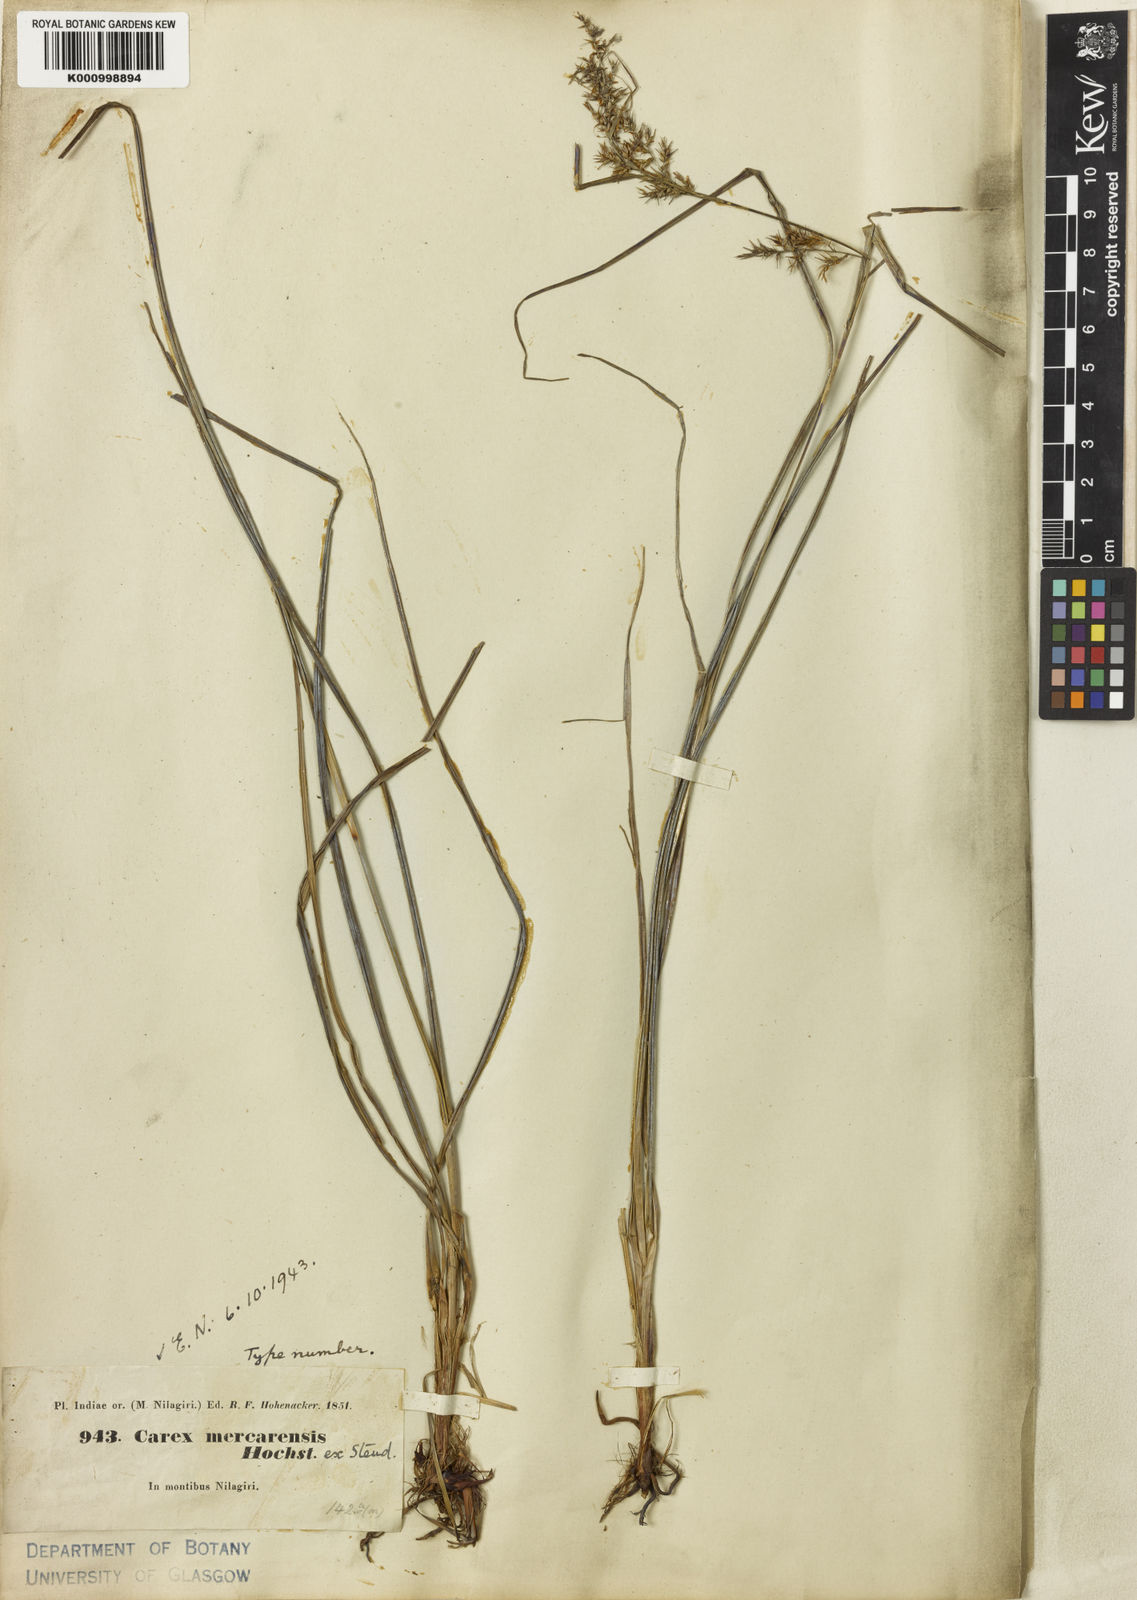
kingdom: Plantae
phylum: Tracheophyta
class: Liliopsida
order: Poales
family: Cyperaceae
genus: Carex
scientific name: Carex raphidocarpa
